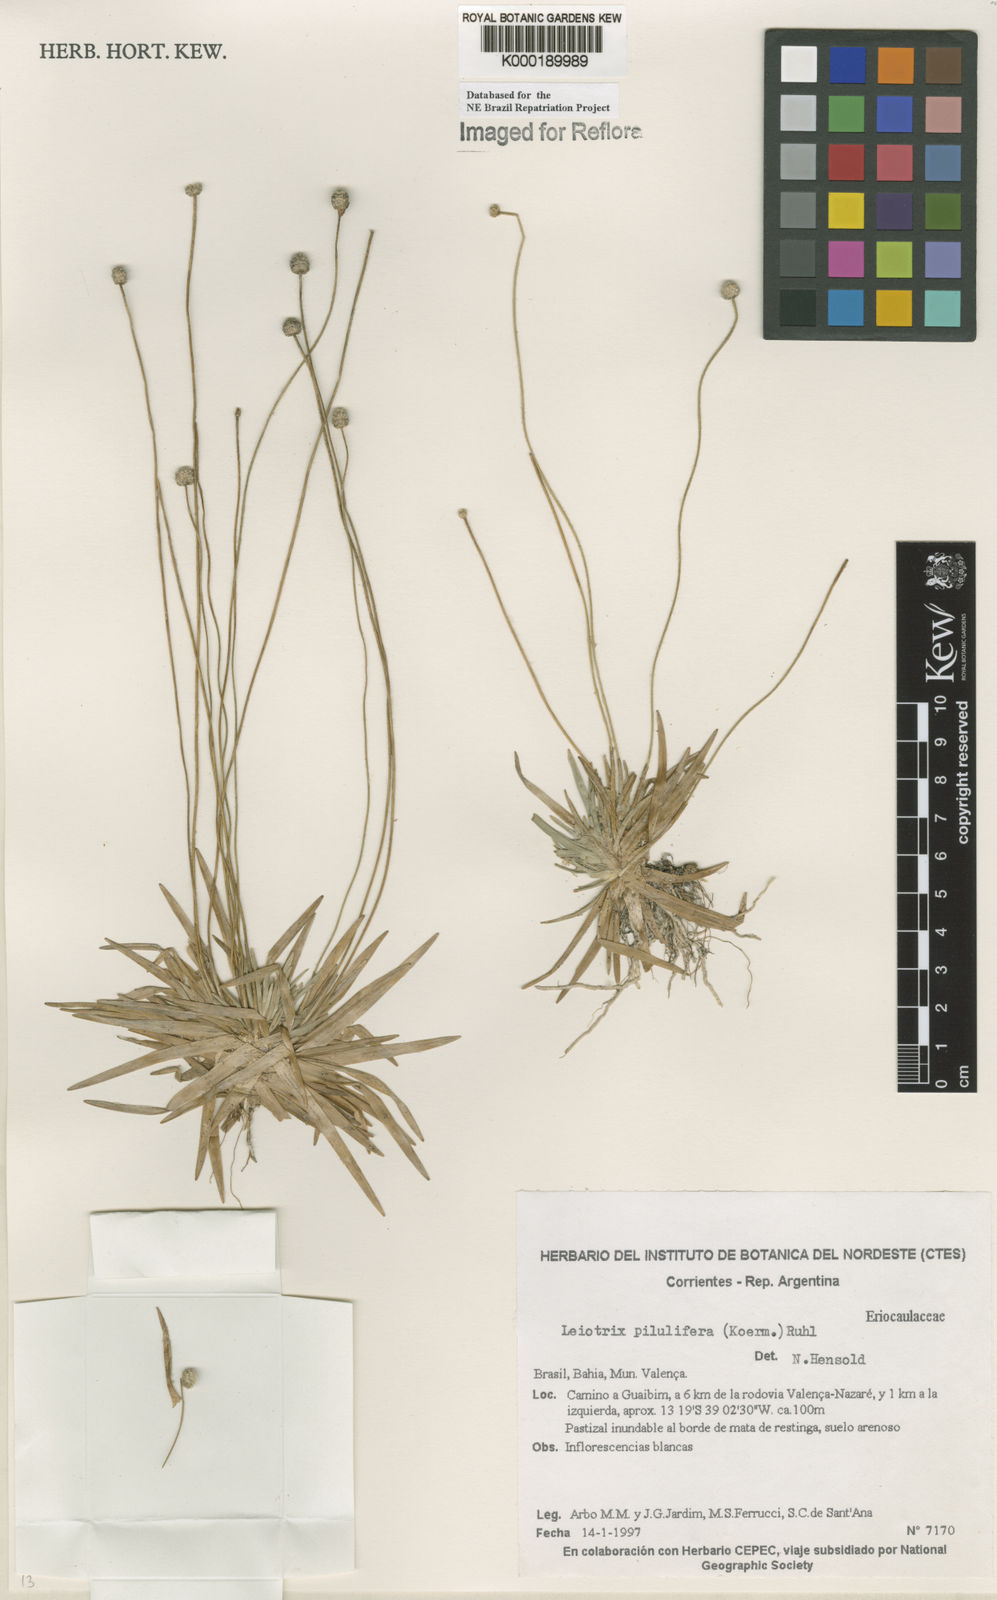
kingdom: Plantae
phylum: Tracheophyta
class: Liliopsida
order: Poales
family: Eriocaulaceae
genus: Leiothrix
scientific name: Leiothrix pilulifera
